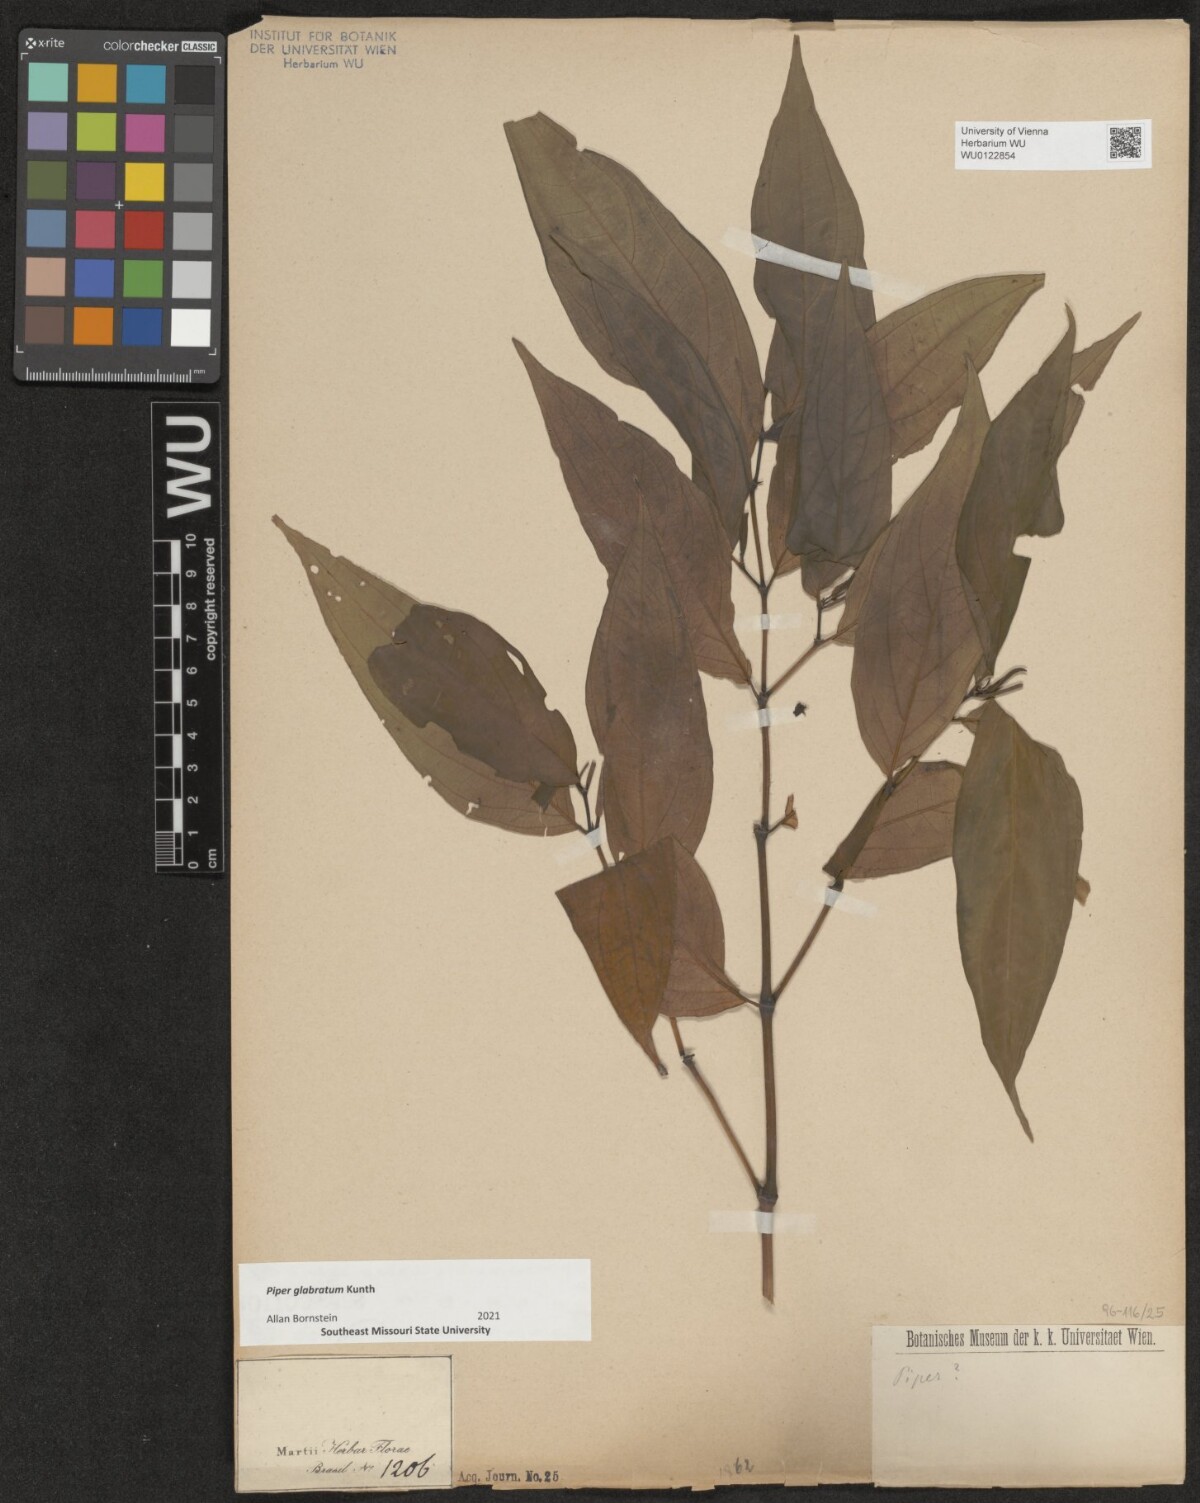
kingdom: Plantae
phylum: Tracheophyta
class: Magnoliopsida
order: Piperales
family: Piperaceae
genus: Piper
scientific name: Piper glabratum
